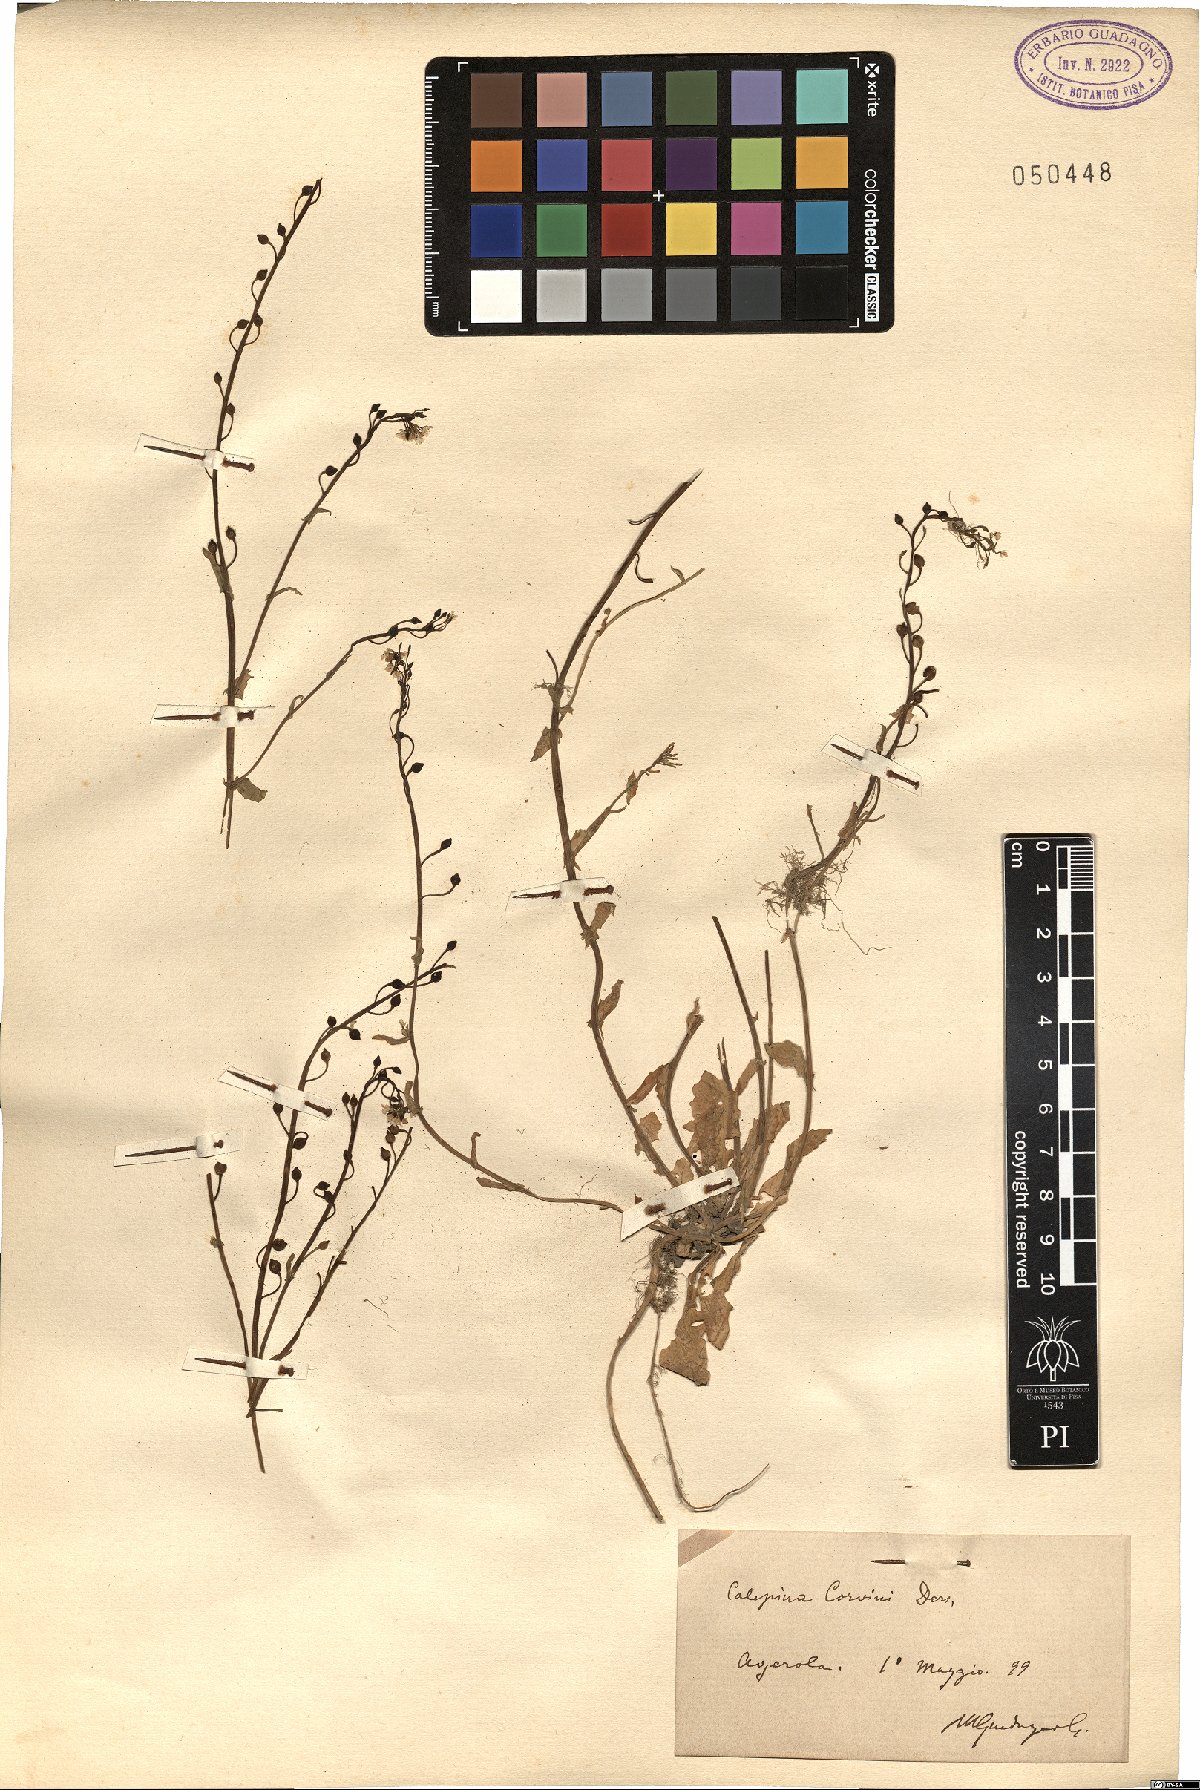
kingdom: Plantae
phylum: Tracheophyta
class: Magnoliopsida
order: Brassicales
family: Brassicaceae
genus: Calepina
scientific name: Calepina irregularis
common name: White ballmustard
